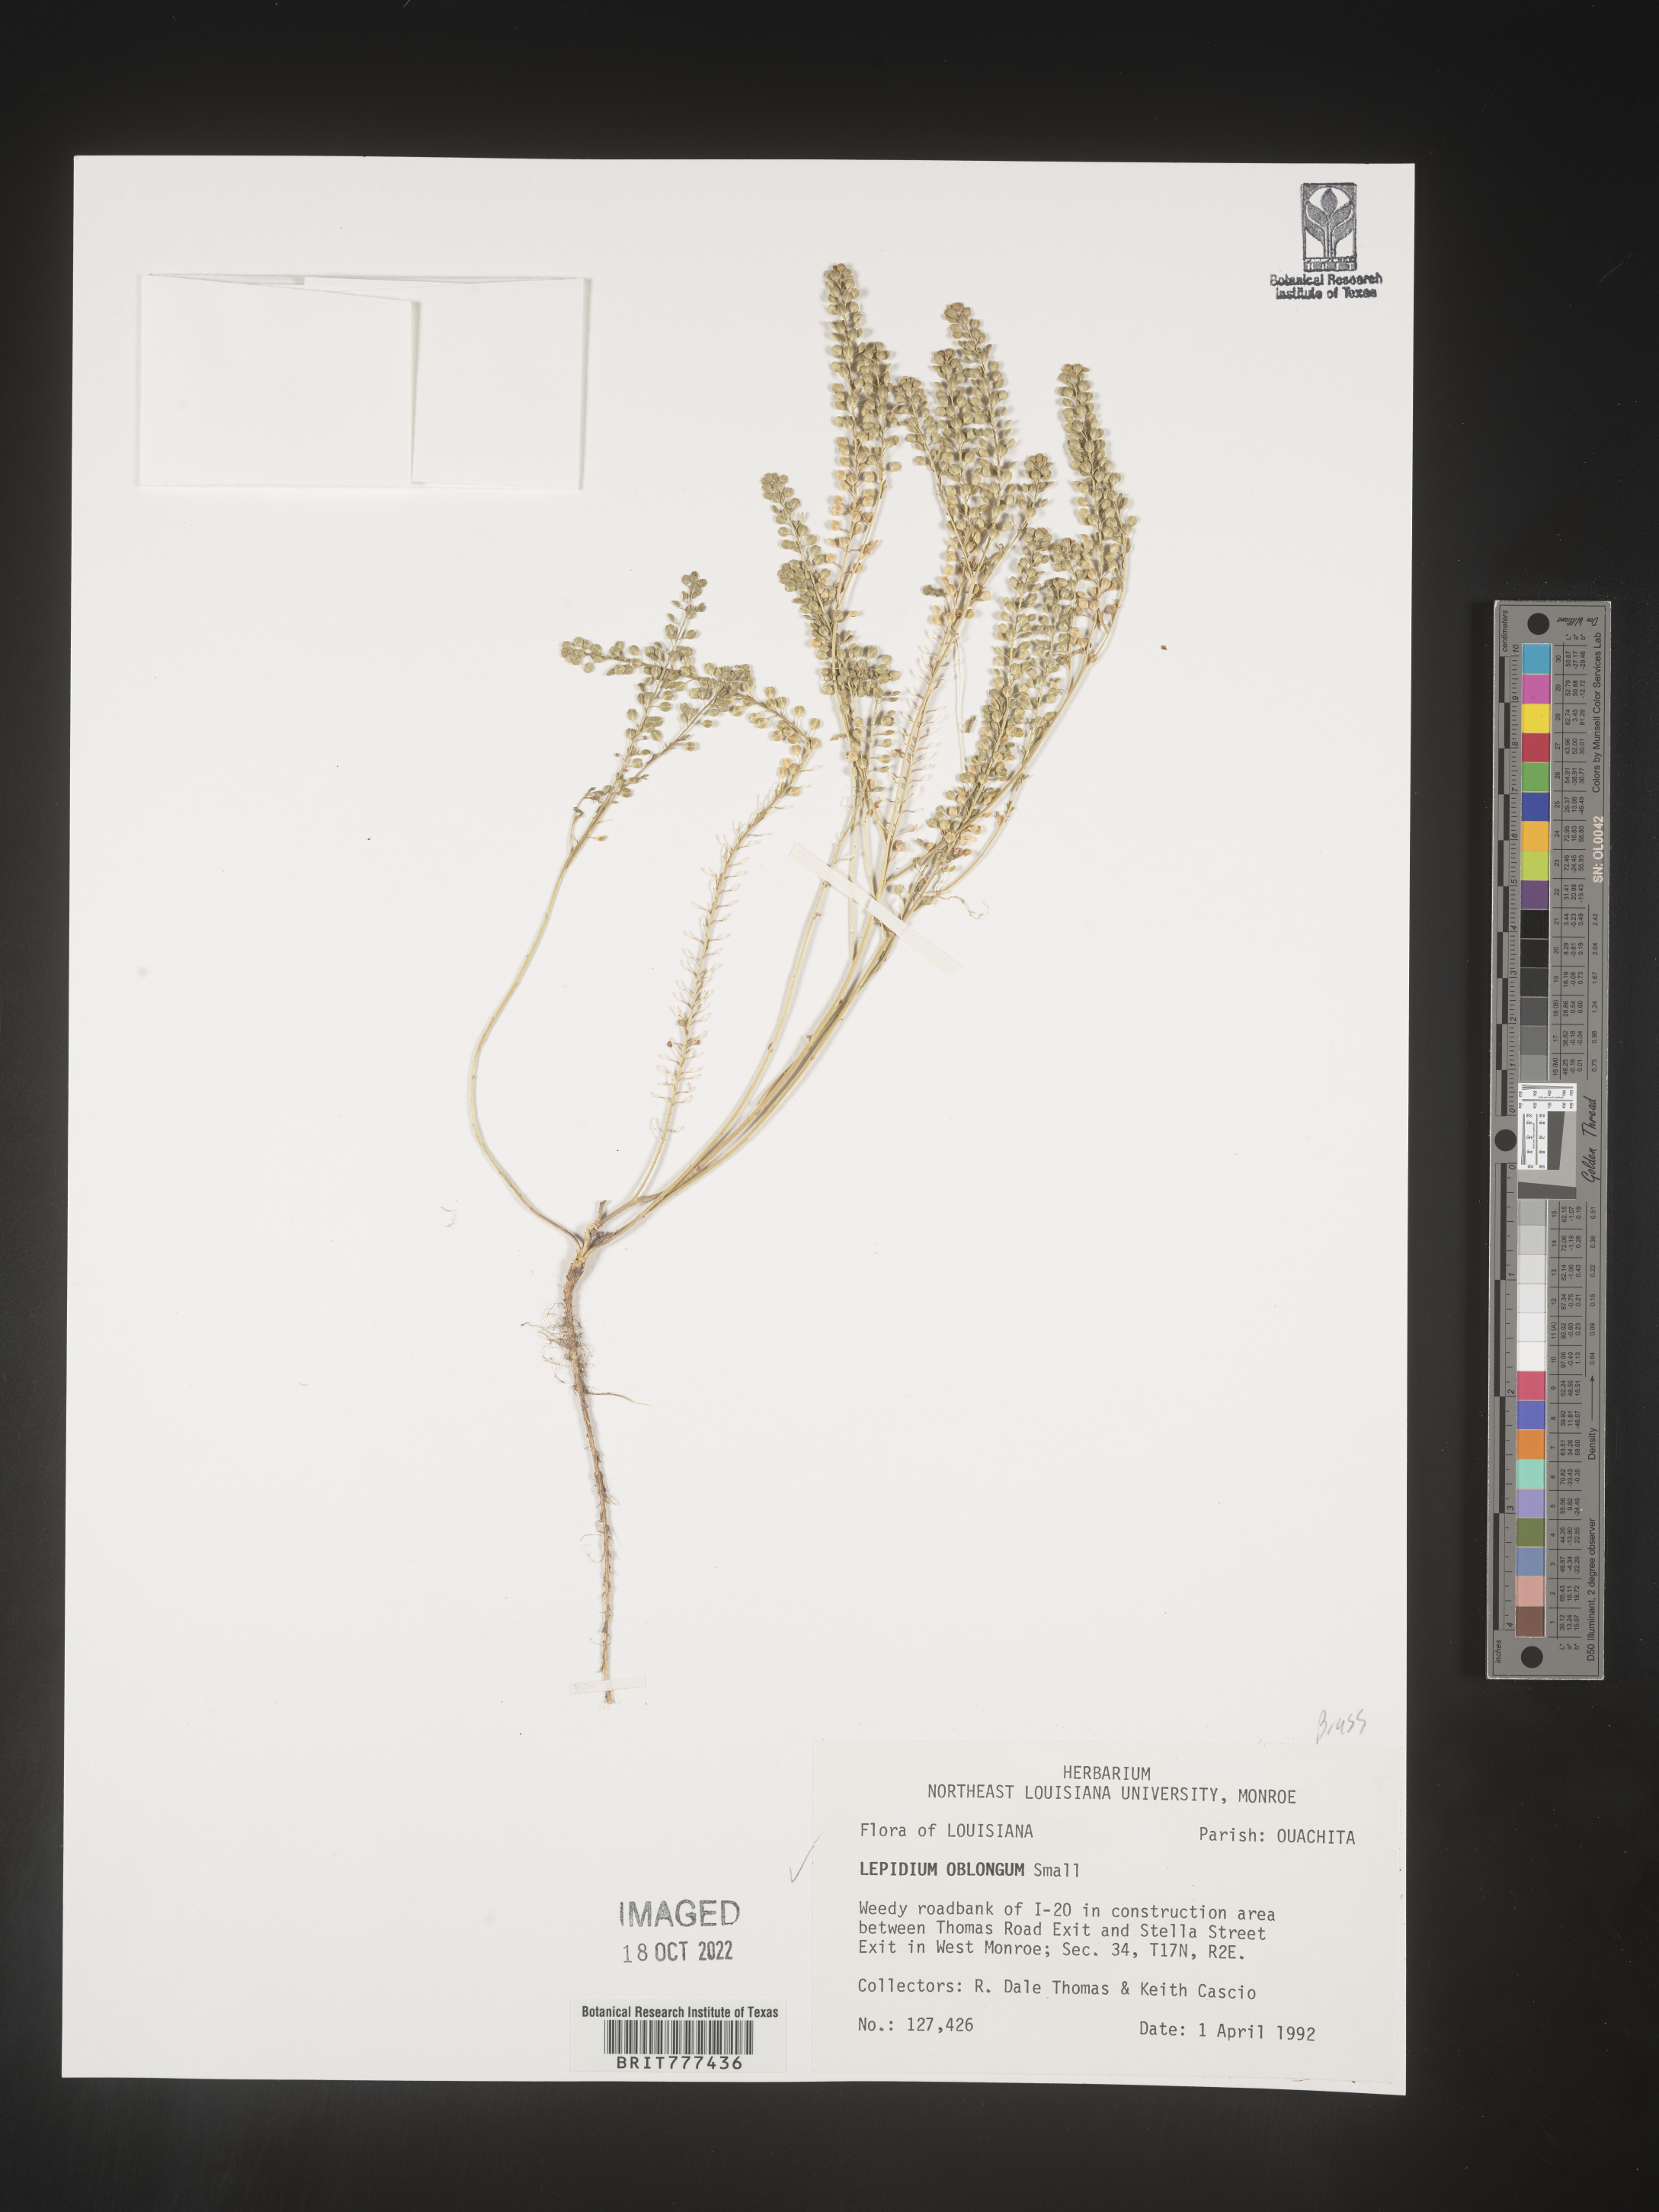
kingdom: Plantae
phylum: Tracheophyta
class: Magnoliopsida
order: Brassicales
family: Brassicaceae
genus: Lepidium
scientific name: Lepidium oblongum
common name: Veiny pepperweed
